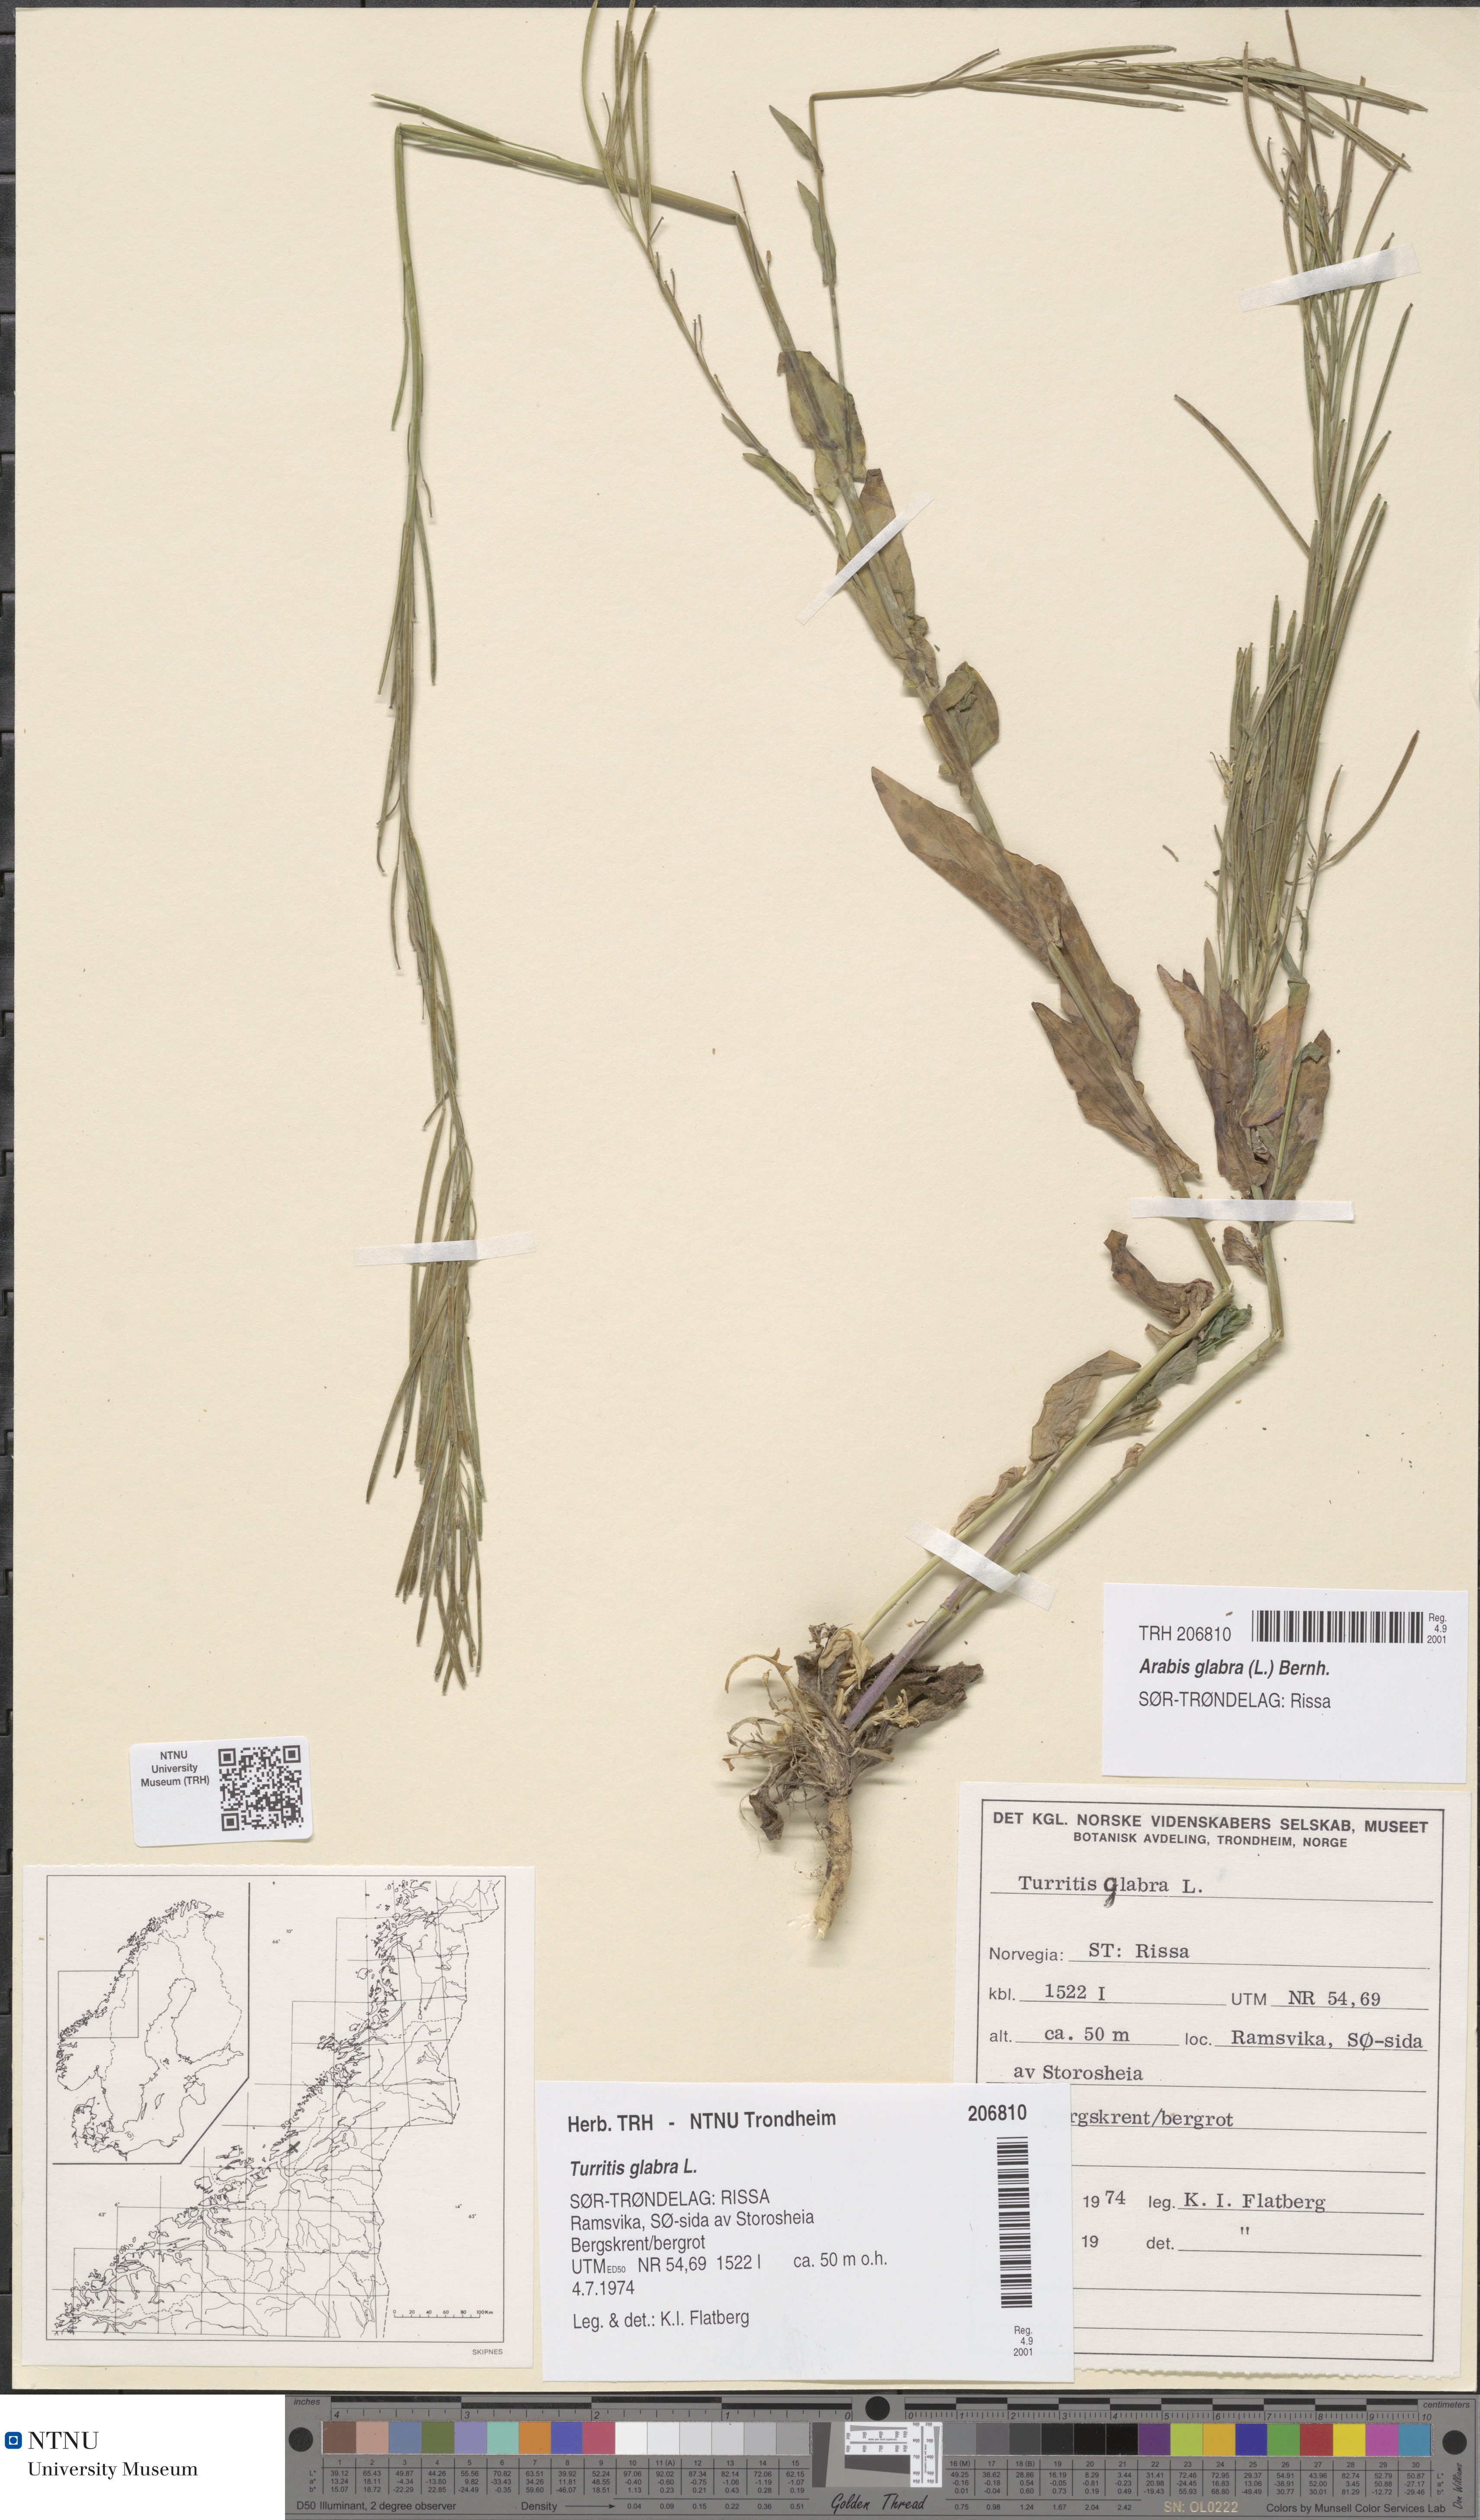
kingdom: Plantae
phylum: Tracheophyta
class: Magnoliopsida
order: Brassicales
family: Brassicaceae
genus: Turritis
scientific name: Turritis glabra
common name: Tower rockcress
